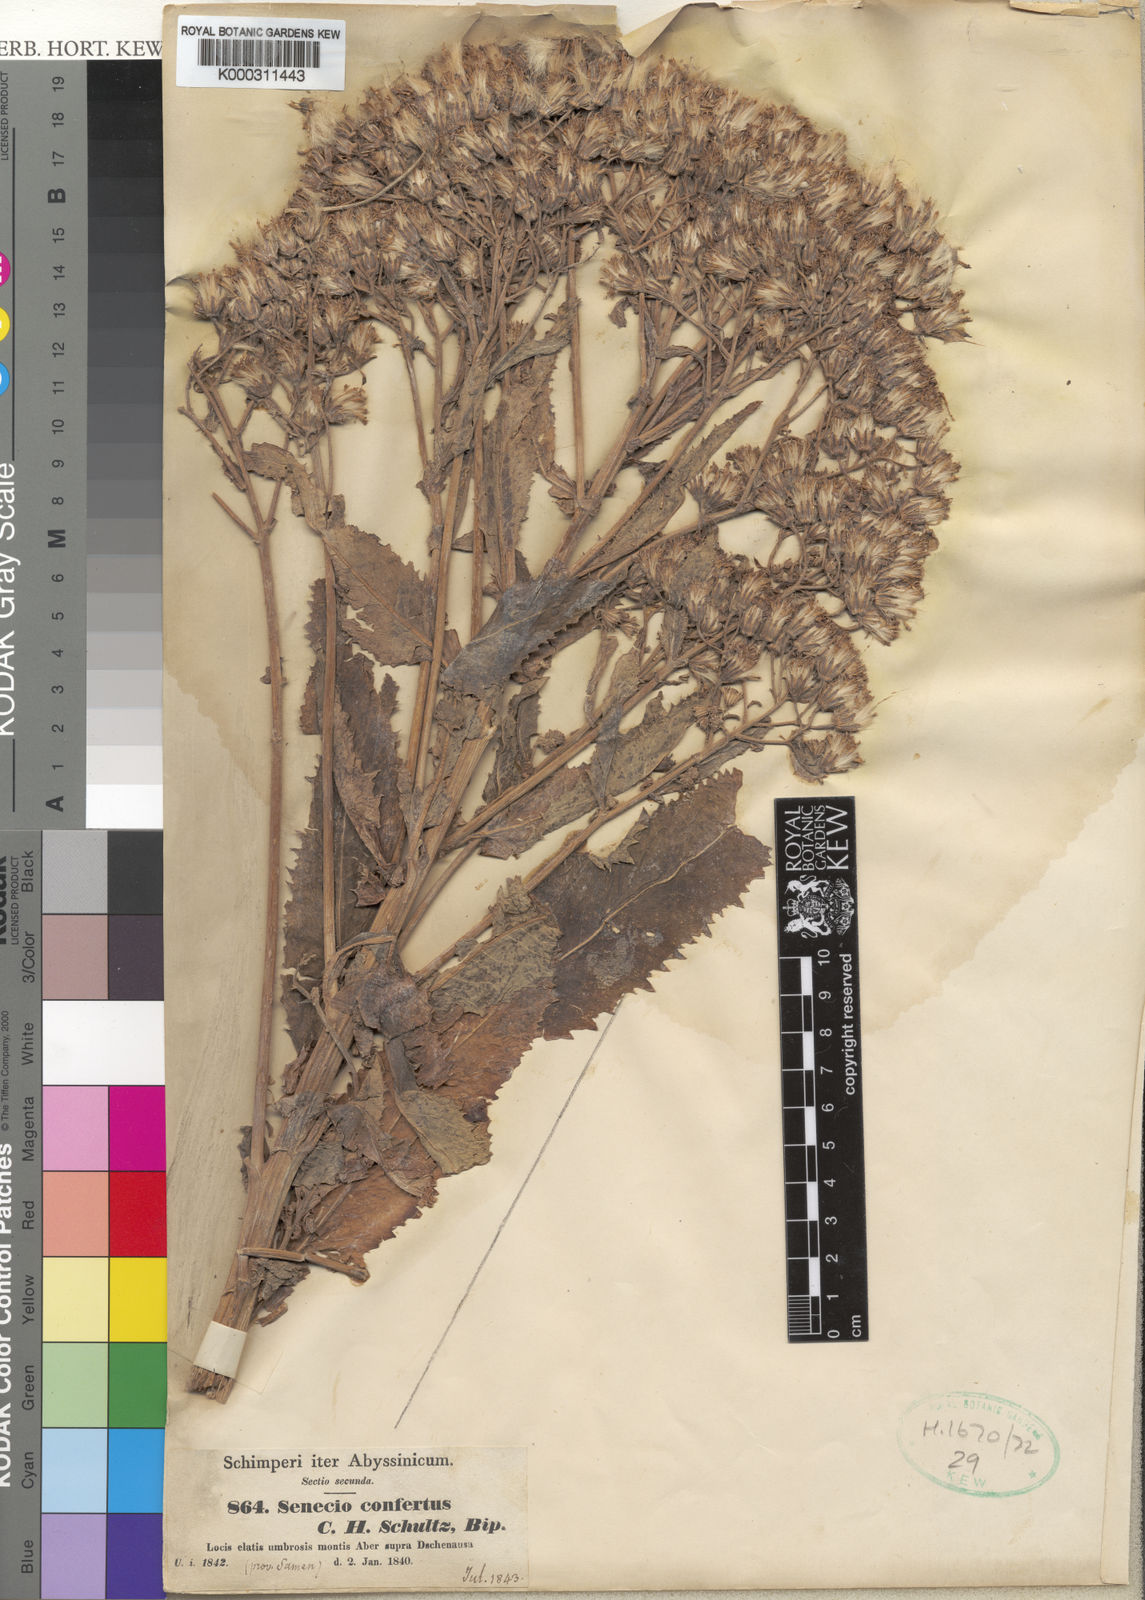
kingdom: Plantae
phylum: Tracheophyta
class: Magnoliopsida
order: Asterales
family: Asteraceae
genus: Senecio
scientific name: Senecio confertus
